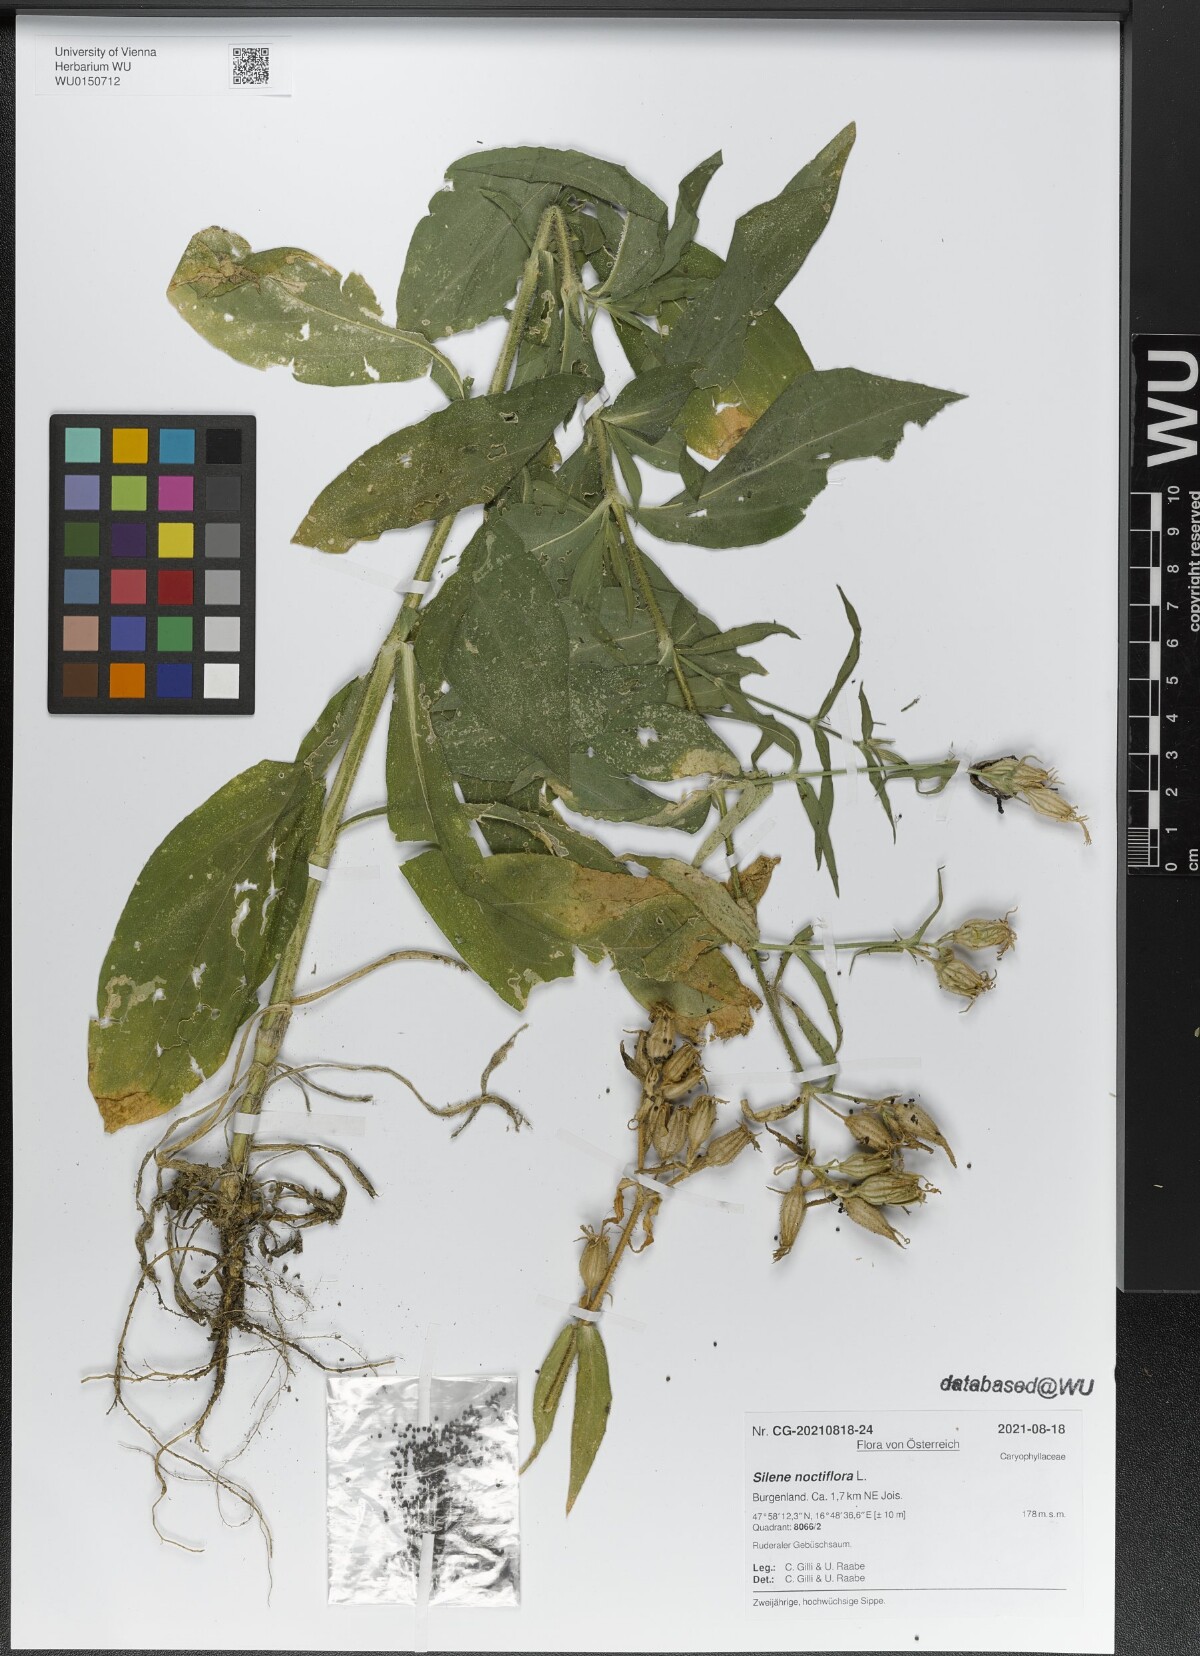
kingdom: Plantae
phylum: Tracheophyta
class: Magnoliopsida
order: Caryophyllales
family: Caryophyllaceae
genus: Silene
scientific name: Silene noctiflora
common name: Night-flowering catchfly
